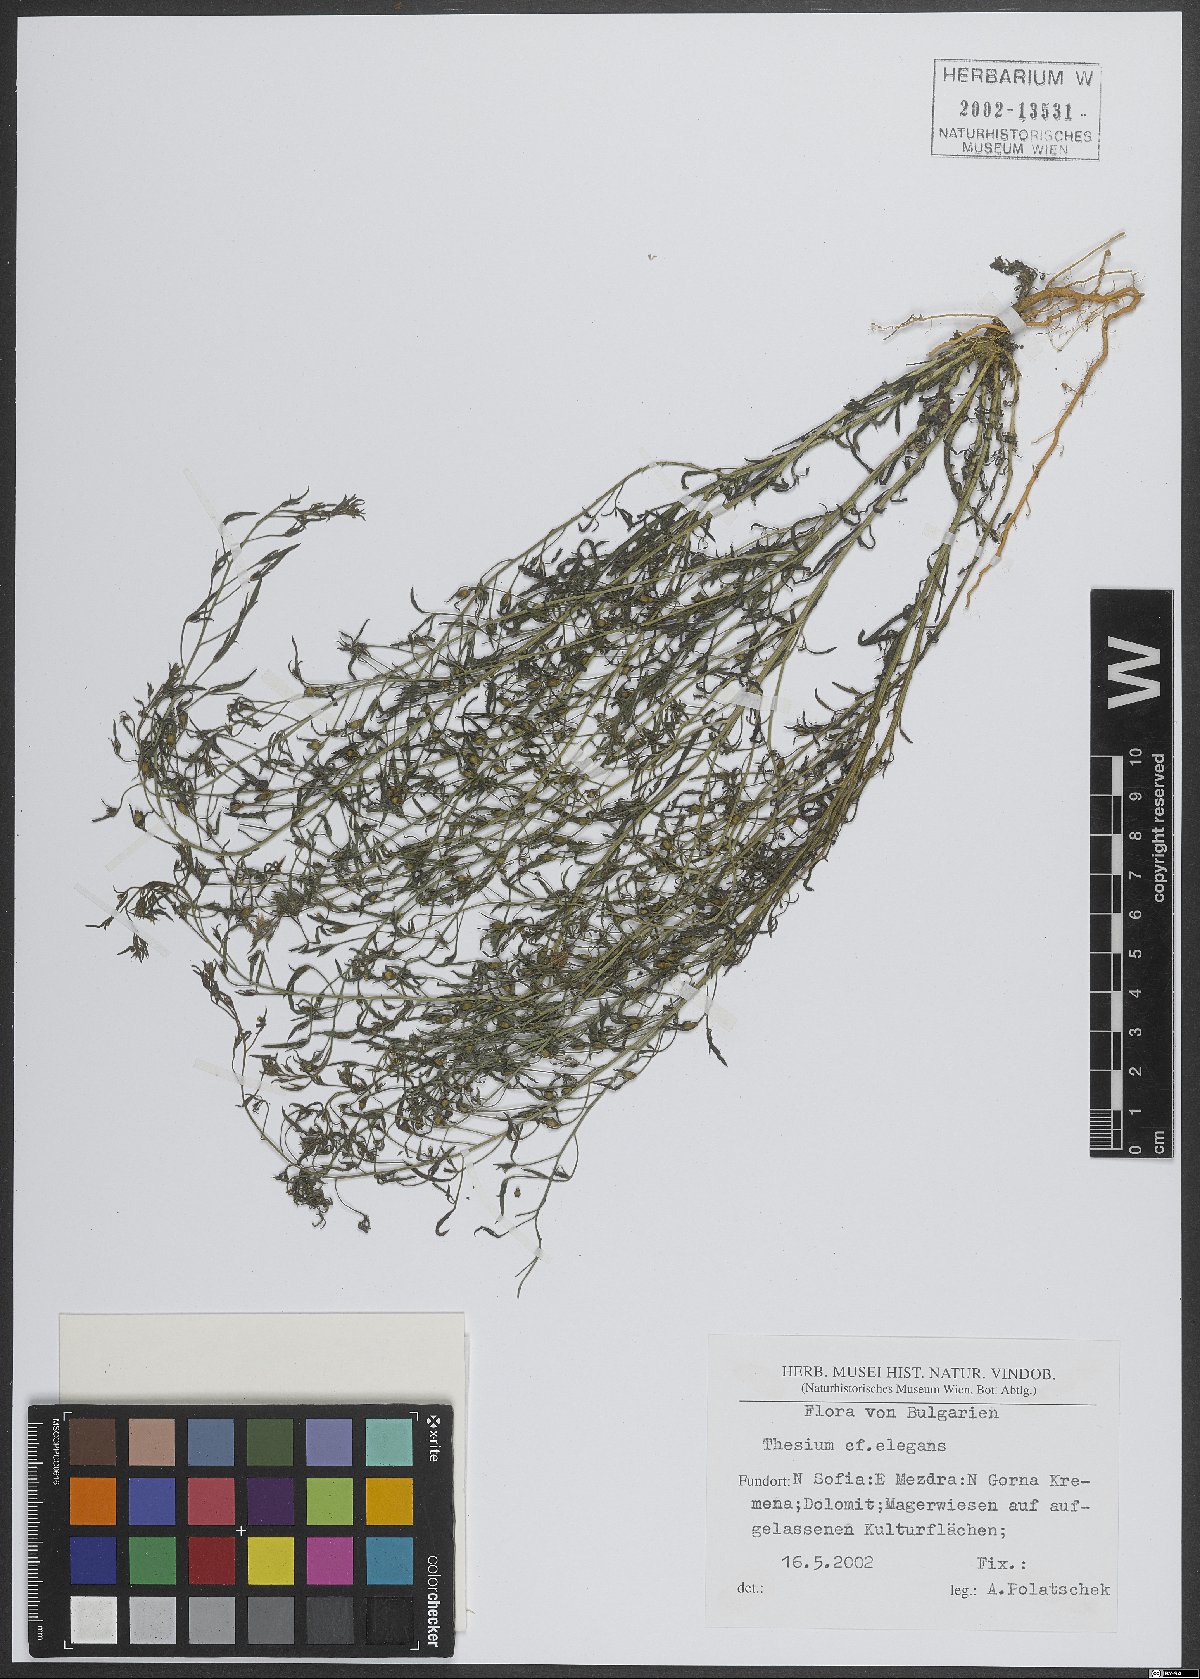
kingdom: Plantae
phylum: Tracheophyta
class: Magnoliopsida
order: Santalales
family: Thesiaceae
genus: Thesium
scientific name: Thesium
